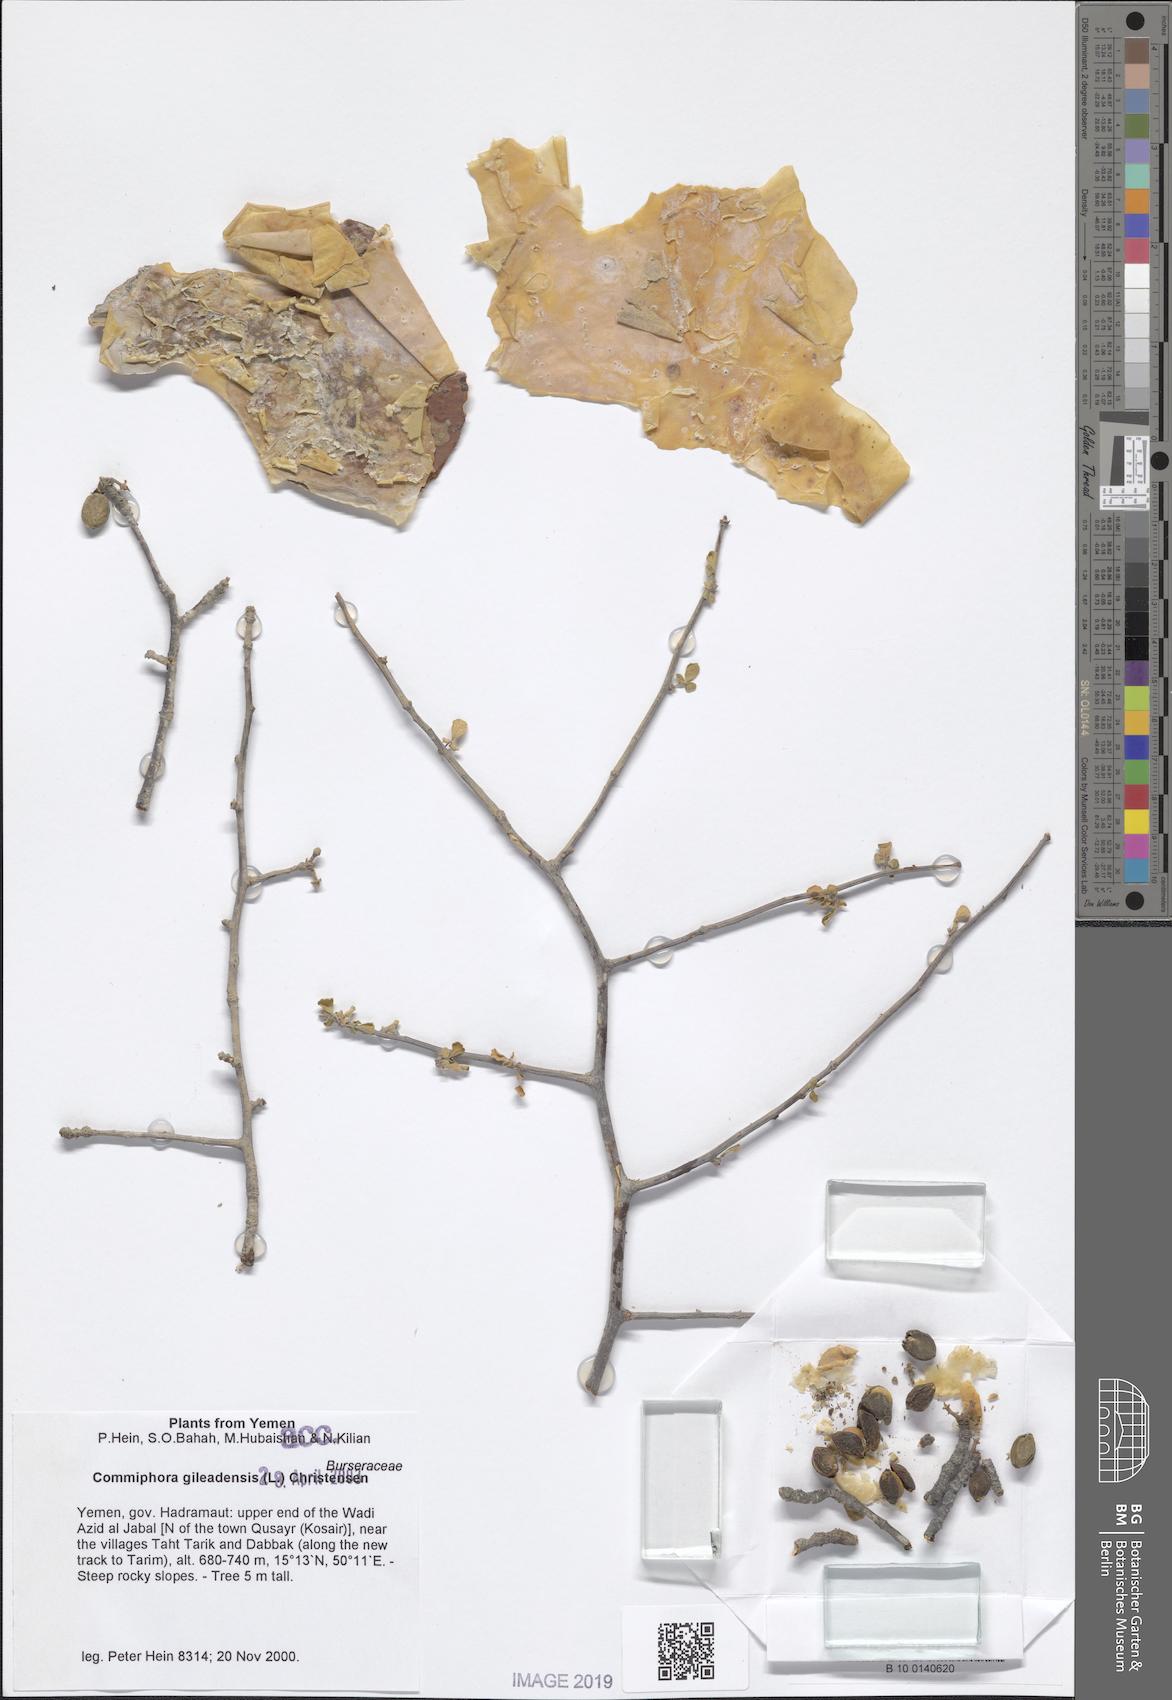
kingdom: Plantae
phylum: Tracheophyta
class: Magnoliopsida
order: Sapindales
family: Burseraceae
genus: Commiphora
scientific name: Commiphora gileadensis
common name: Balm-of-gilead
